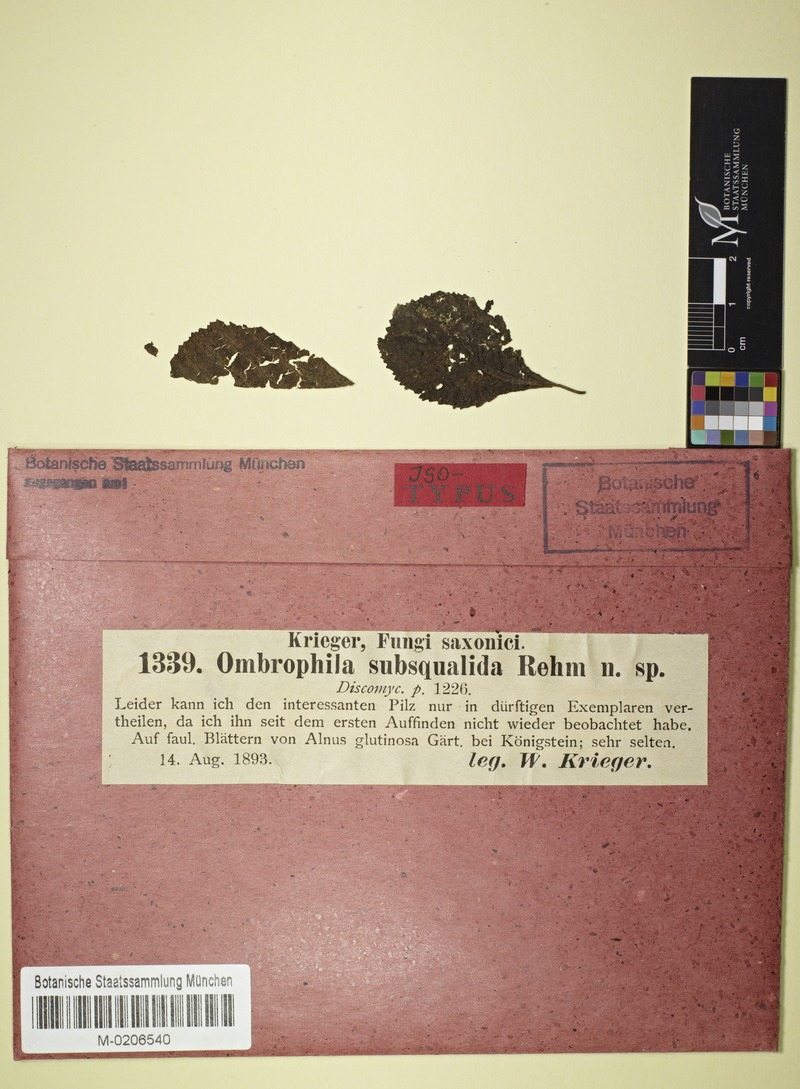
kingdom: Fungi
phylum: Ascomycota
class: Leotiomycetes
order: Helotiales
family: Helotiaceae
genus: Pachydisca
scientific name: Pachydisca subsqualida
